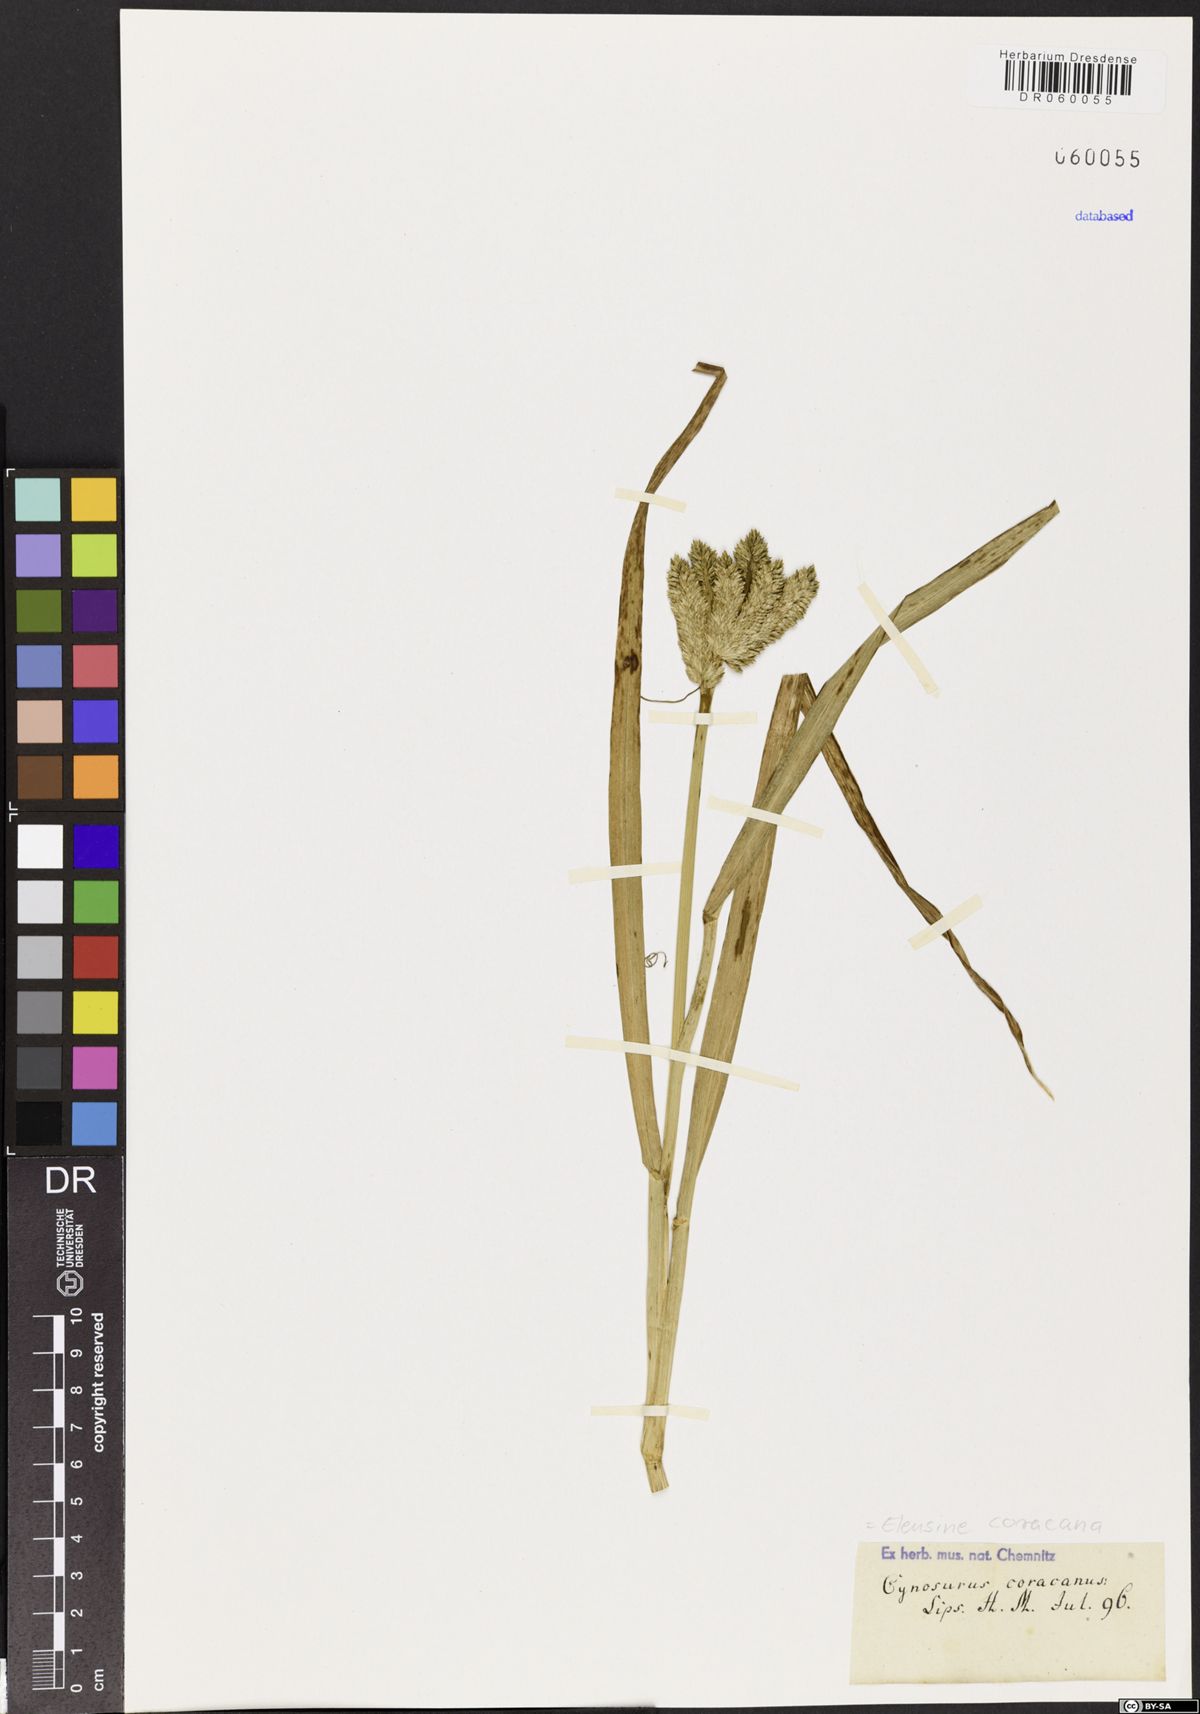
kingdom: Plantae
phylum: Tracheophyta
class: Liliopsida
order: Poales
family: Poaceae
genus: Eleusine
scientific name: Eleusine coracana
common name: Finger millet
